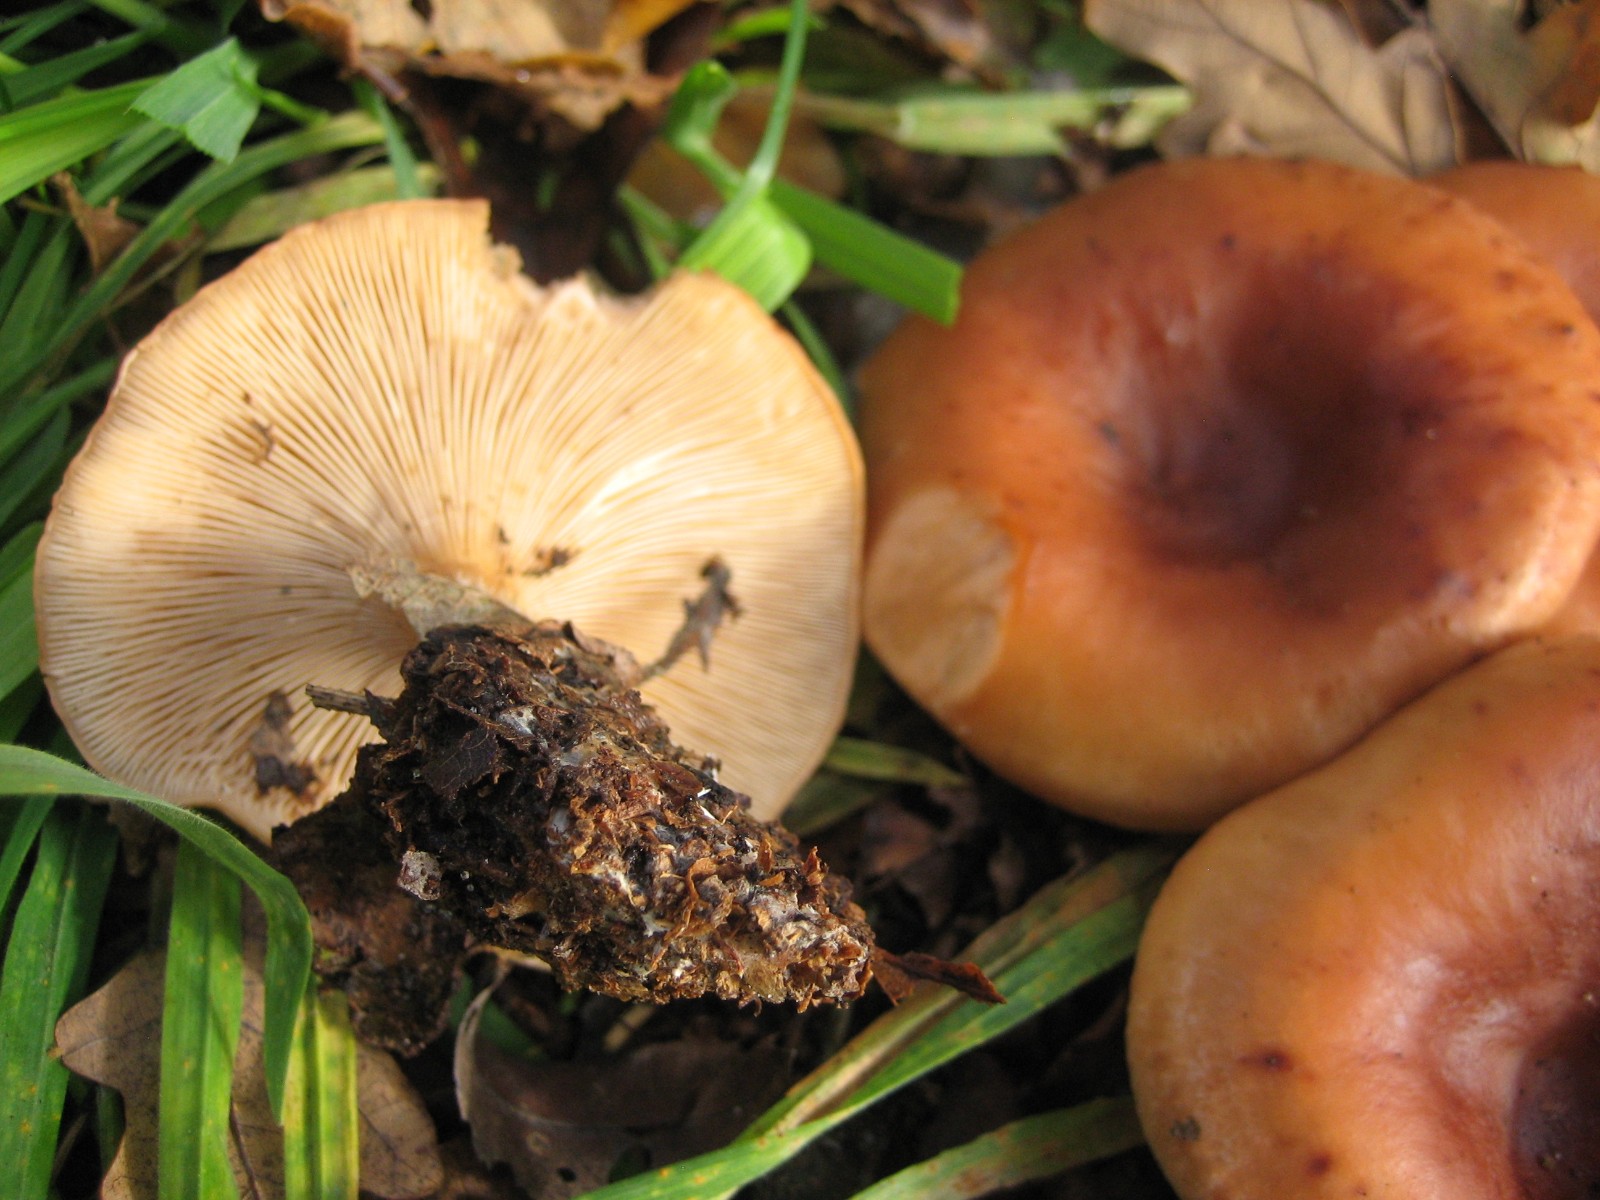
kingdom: Fungi
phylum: Basidiomycota
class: Agaricomycetes
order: Agaricales
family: Tricholomataceae
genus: Paralepista
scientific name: Paralepista flaccida
